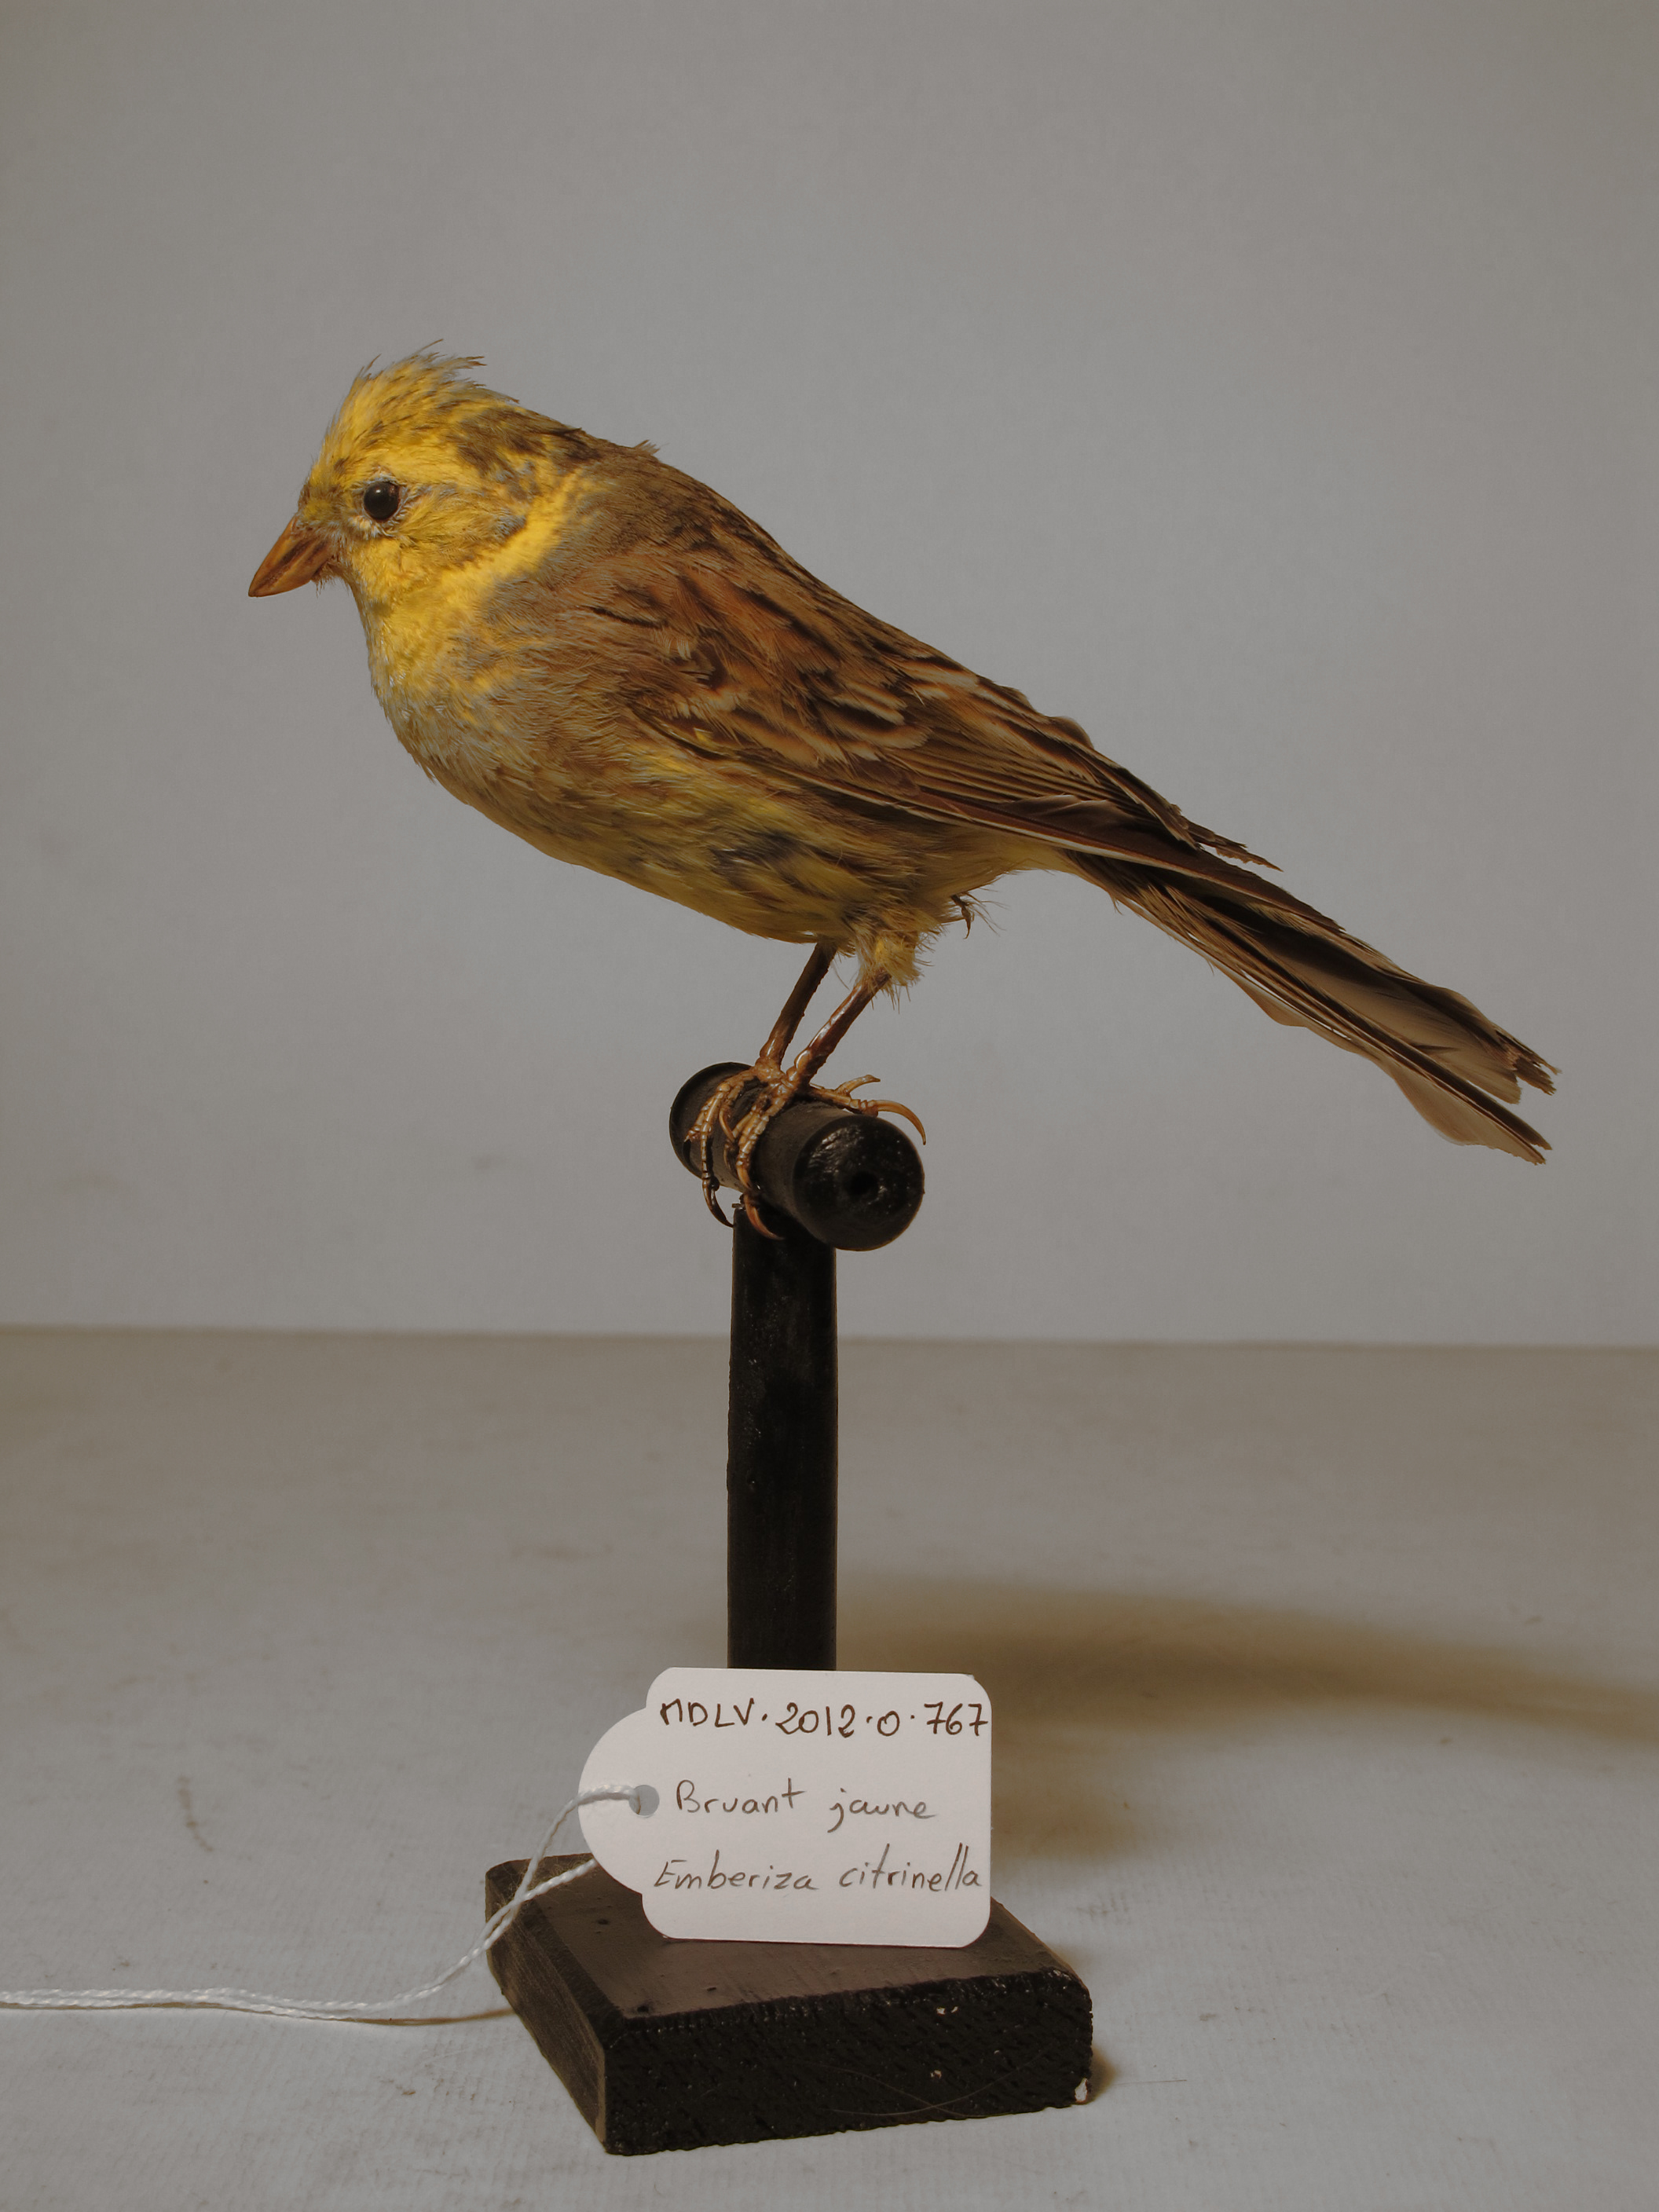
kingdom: Animalia
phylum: Chordata
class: Aves
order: Passeriformes
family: Emberizidae
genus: Emberiza
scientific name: Emberiza citrinella
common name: Yellowhammer
